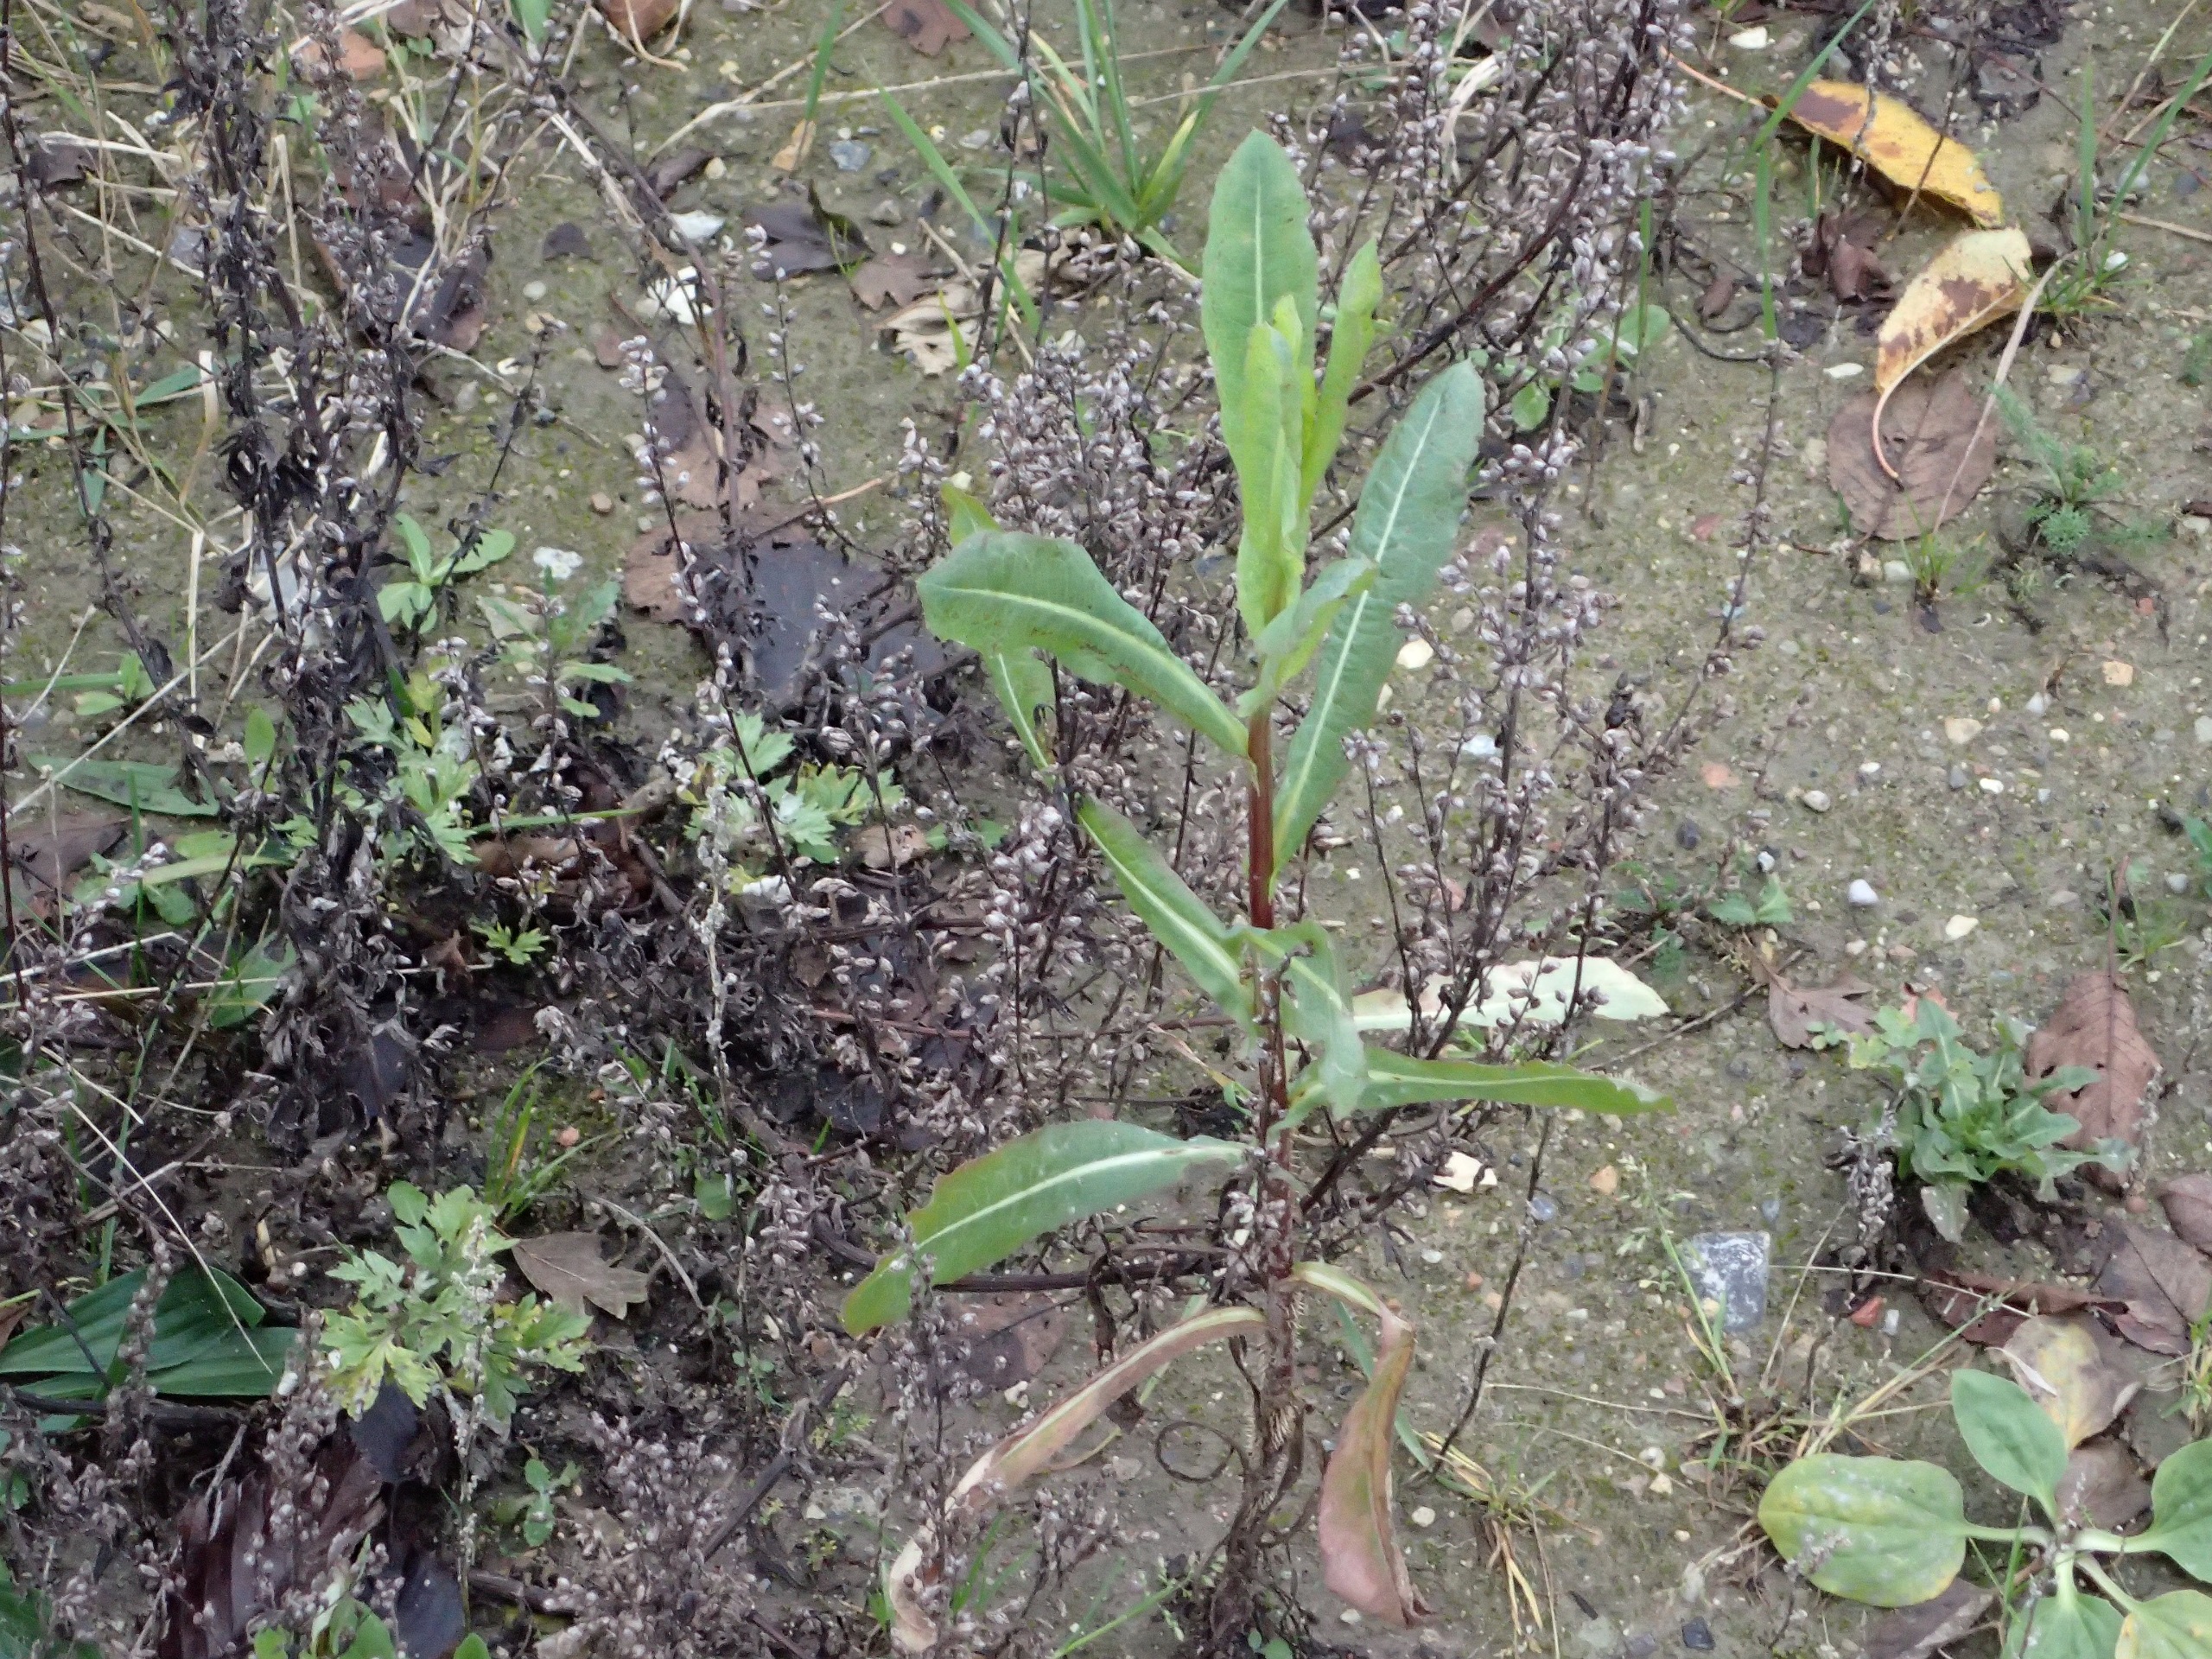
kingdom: Plantae
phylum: Tracheophyta
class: Magnoliopsida
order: Asterales
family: Asteraceae
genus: Lactuca
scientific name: Lactuca serriola
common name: Tornet salat
